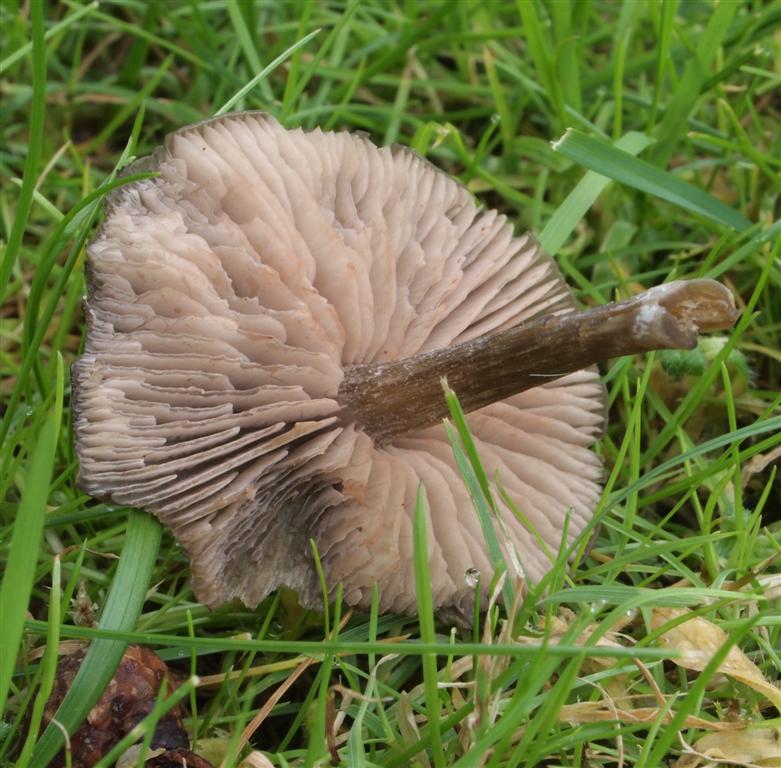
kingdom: Fungi
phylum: Basidiomycota
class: Agaricomycetes
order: Agaricales
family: Entolomataceae
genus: Entoloma
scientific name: Entoloma sericeum
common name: silkeglinsende rødblad
